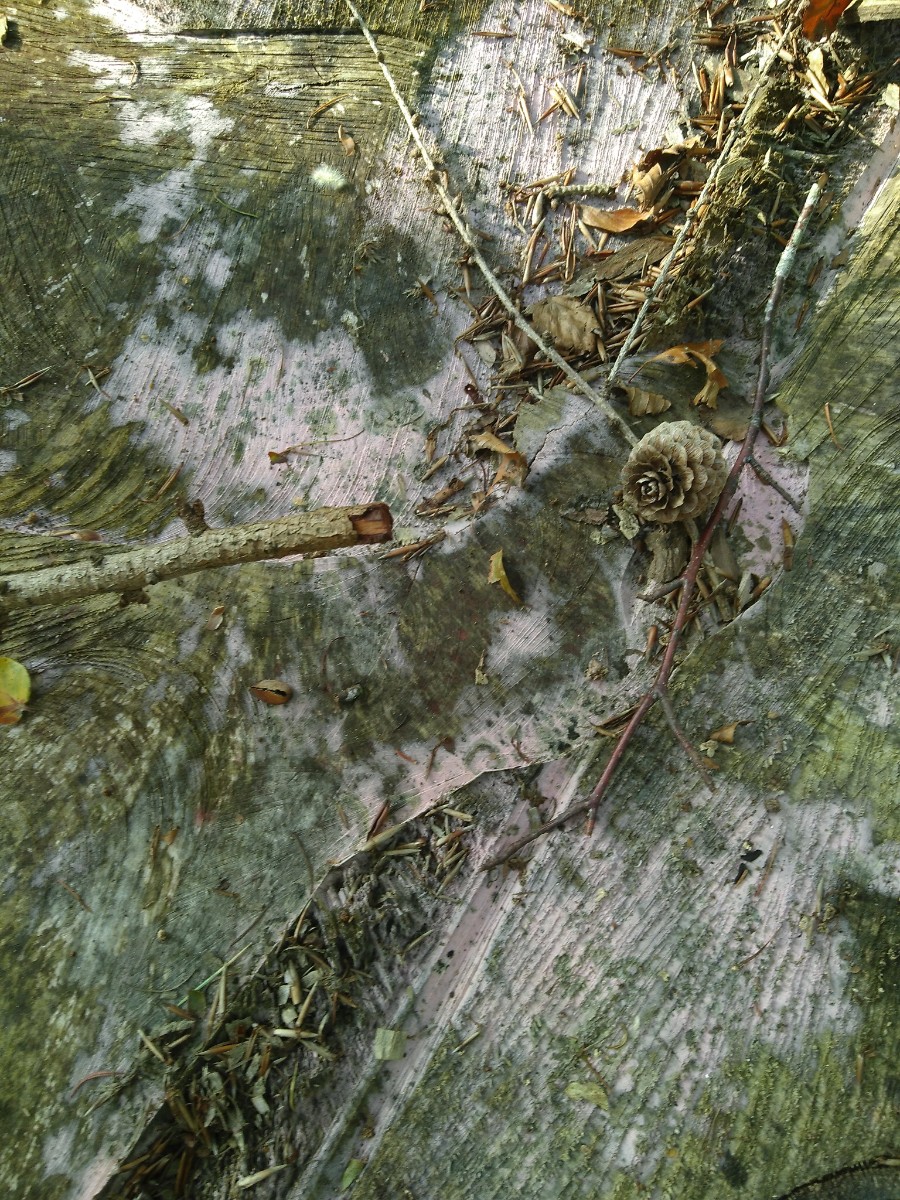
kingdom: Fungi
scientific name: Fungi
